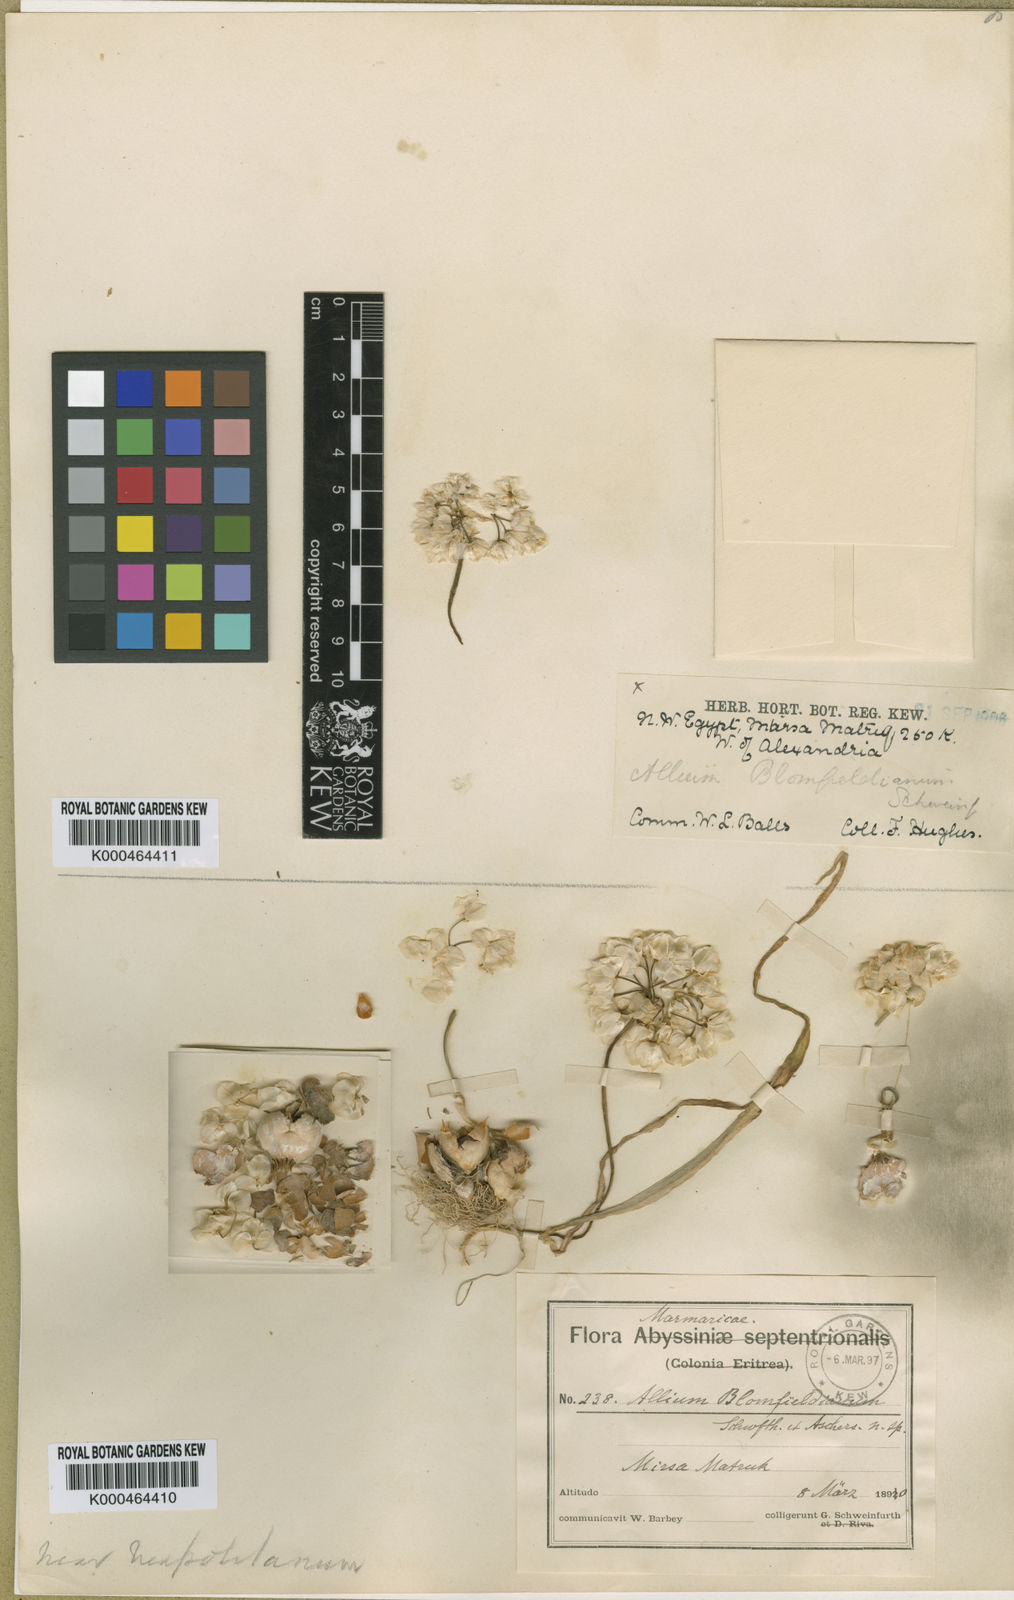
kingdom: Plantae
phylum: Tracheophyta
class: Liliopsida
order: Asparagales
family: Amaryllidaceae
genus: Allium
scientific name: Allium blomfieldianum
